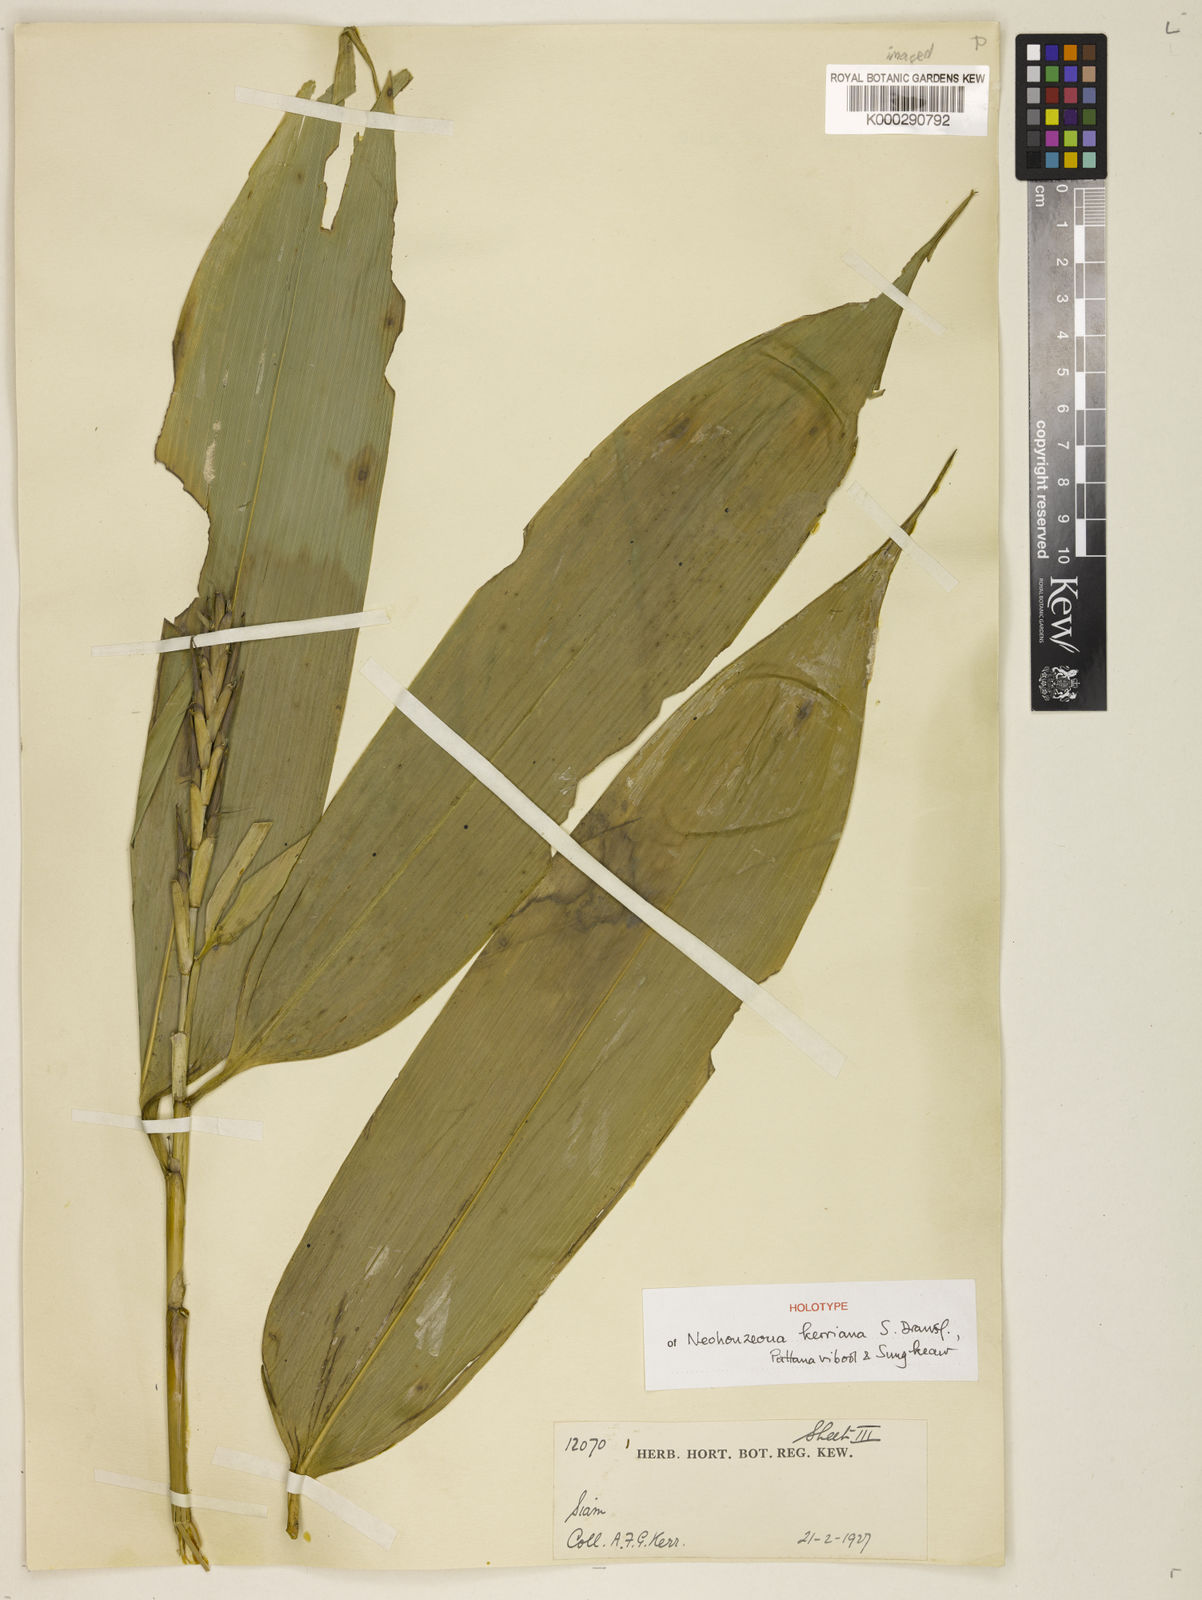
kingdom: Plantae
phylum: Tracheophyta
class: Liliopsida
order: Poales
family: Poaceae
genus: Schizostachyum
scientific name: Schizostachyum
